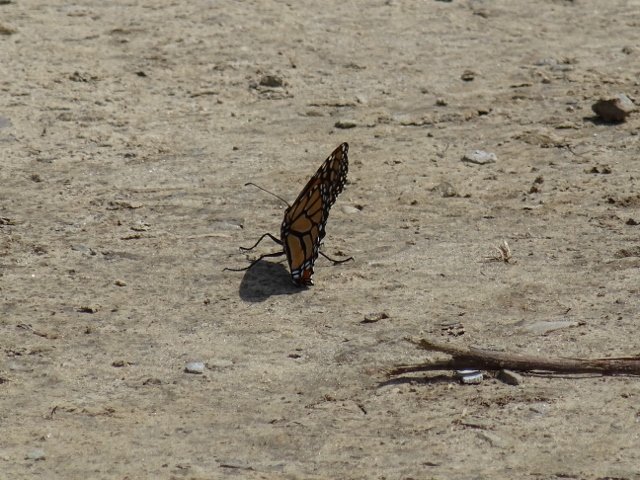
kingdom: Animalia
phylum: Arthropoda
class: Insecta
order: Lepidoptera
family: Nymphalidae
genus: Danaus
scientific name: Danaus plexippus
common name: Monarch
